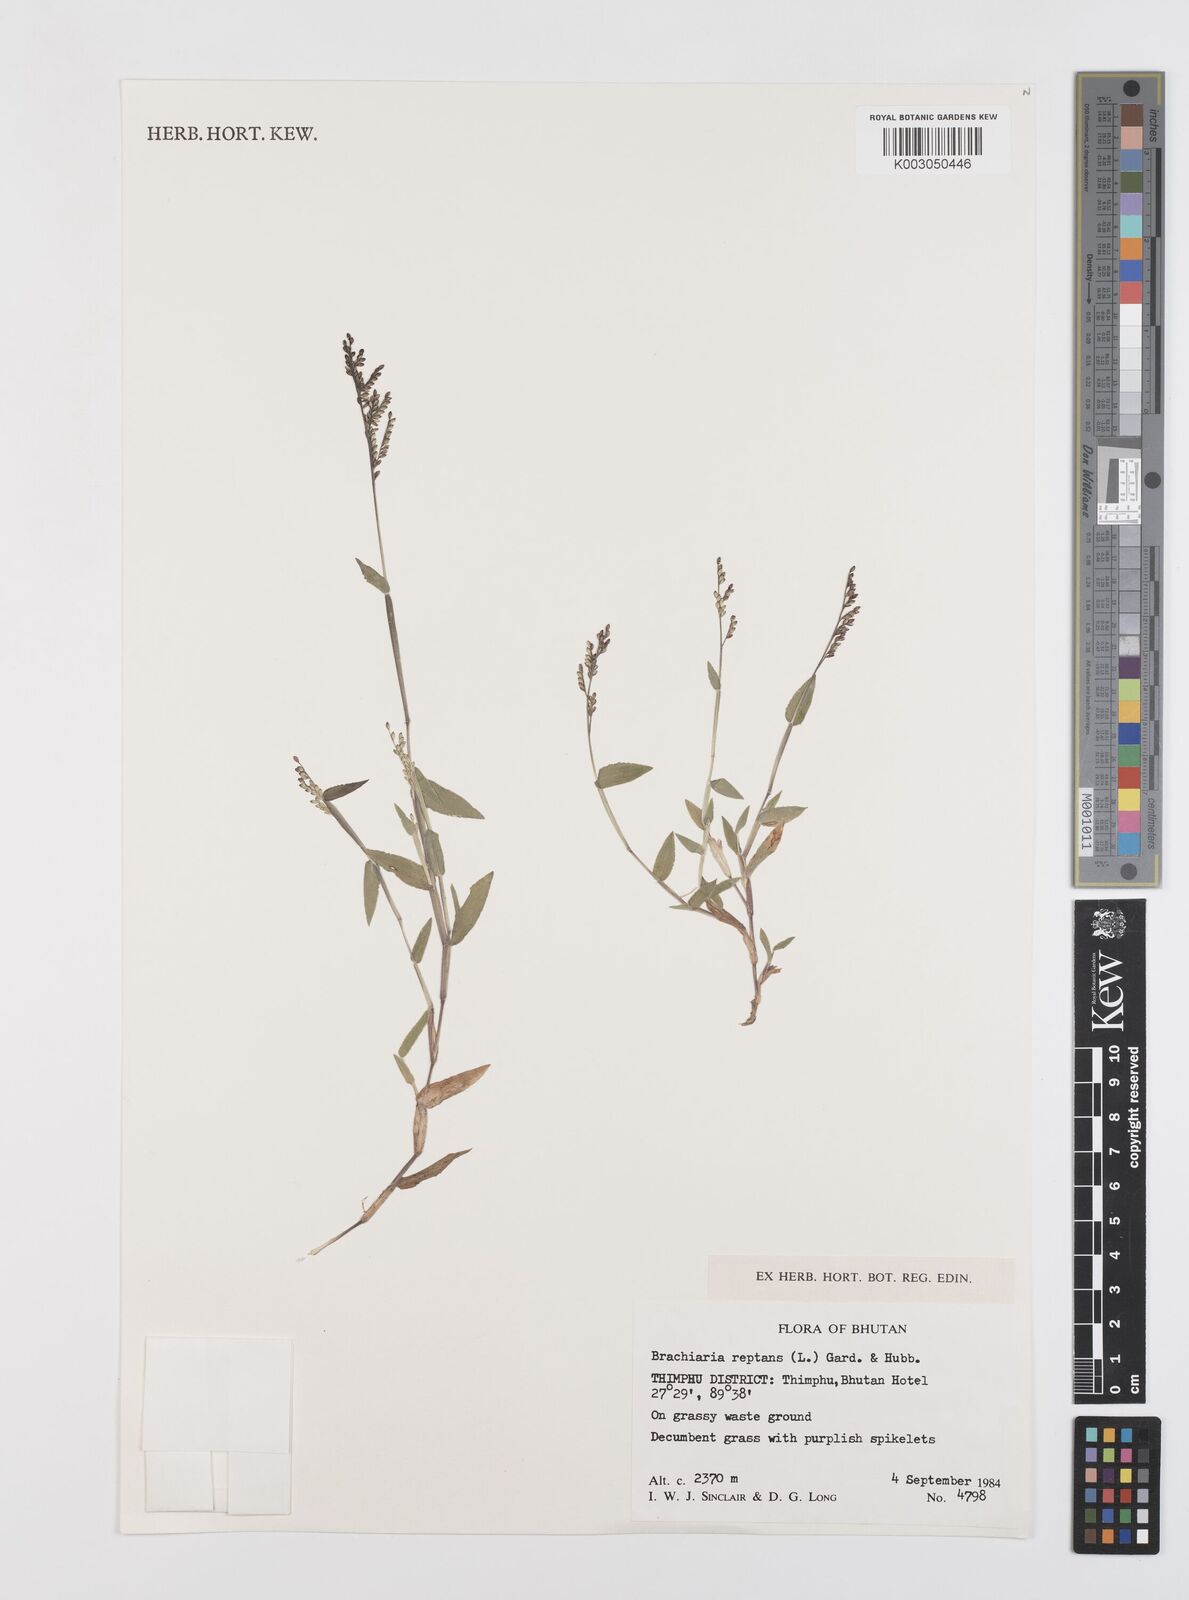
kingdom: Plantae
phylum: Tracheophyta
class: Liliopsida
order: Poales
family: Poaceae
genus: Urochloa
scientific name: Urochloa reptans
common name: Sprawling signalgrass
